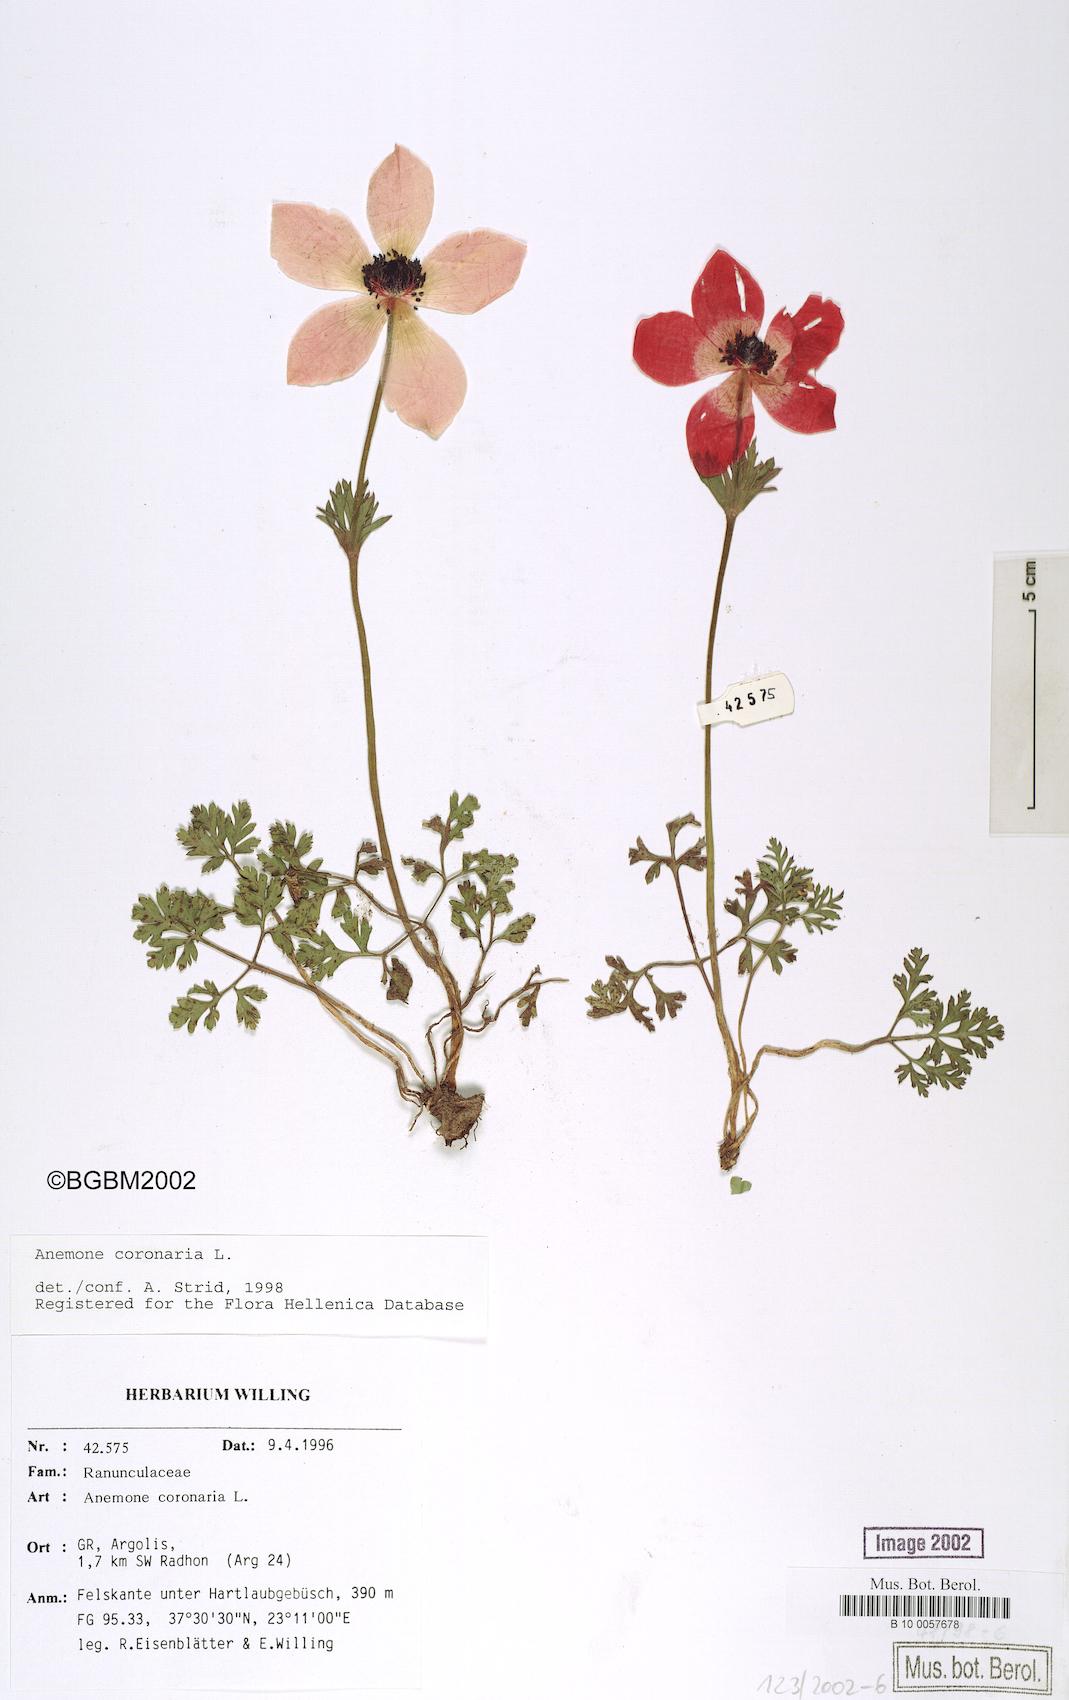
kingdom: Plantae
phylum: Tracheophyta
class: Magnoliopsida
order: Ranunculales
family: Ranunculaceae
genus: Anemone
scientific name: Anemone coronaria
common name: Poppy anemone
